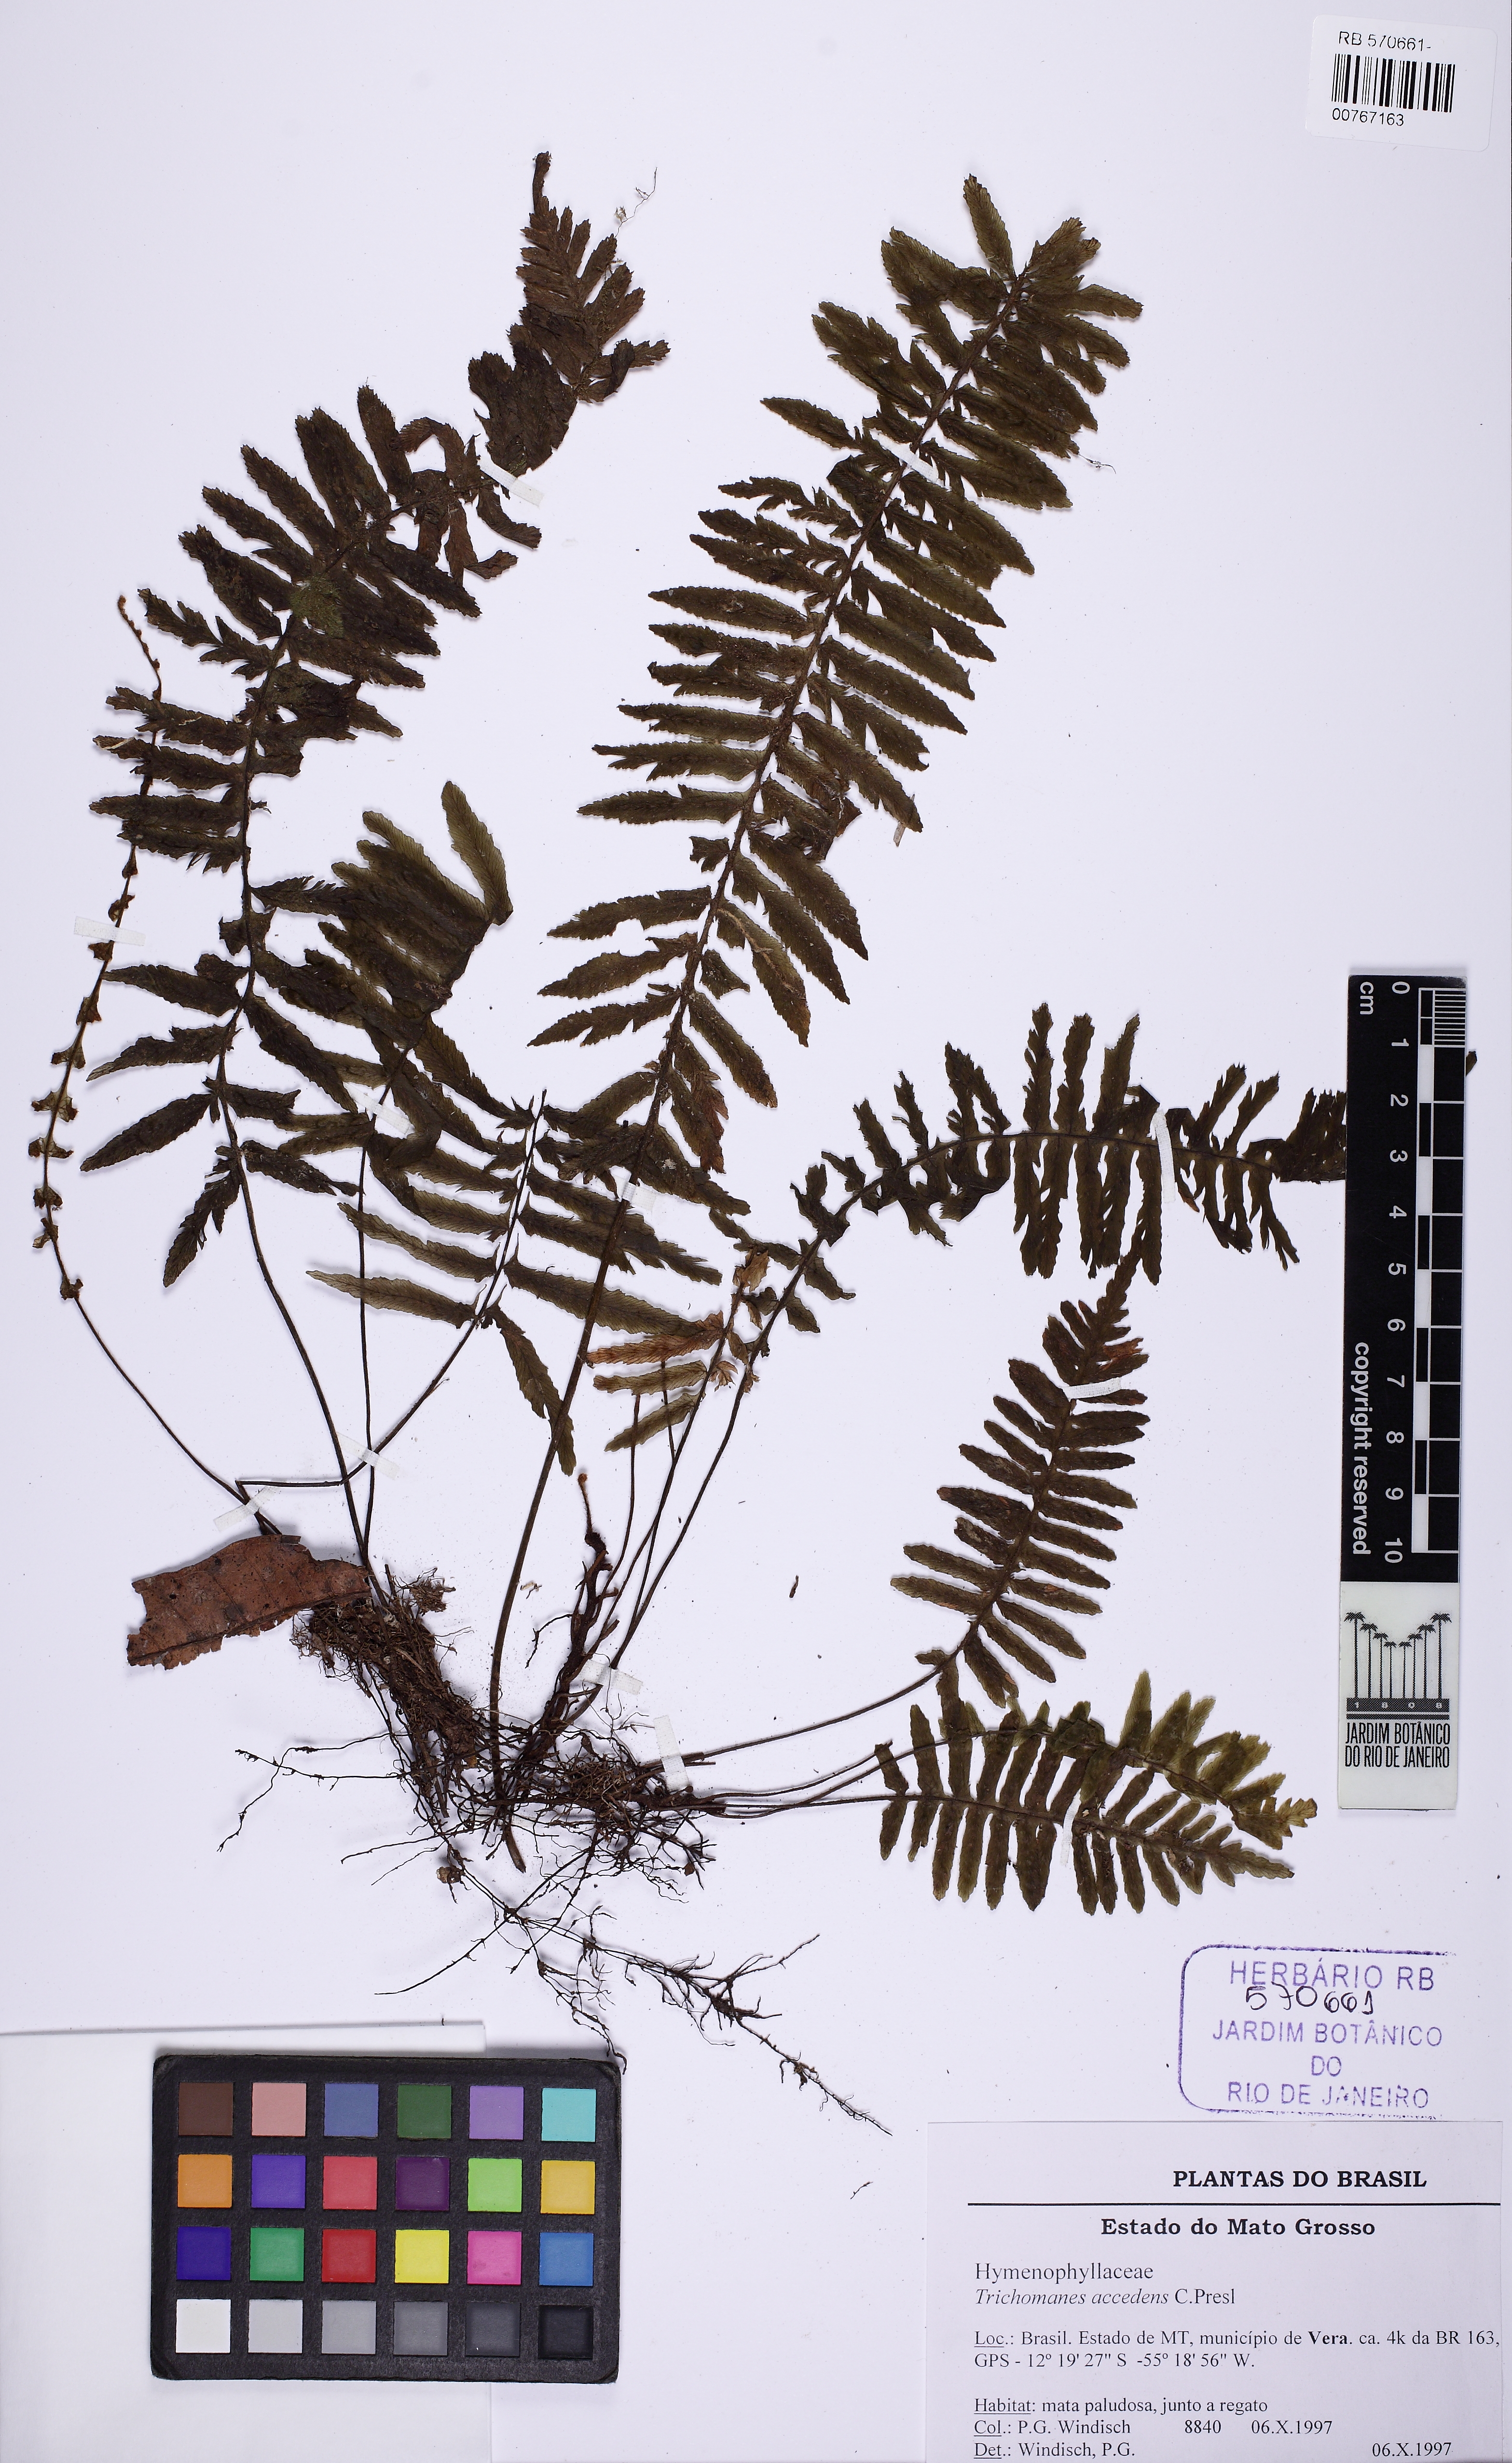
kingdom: Plantae
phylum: Tracheophyta
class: Polypodiopsida
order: Hymenophyllales
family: Hymenophyllaceae
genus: Trichomanes
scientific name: Trichomanes accedens
